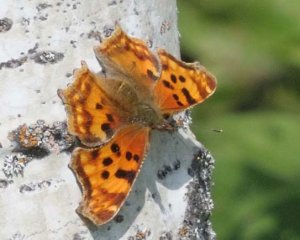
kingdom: Animalia
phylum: Arthropoda
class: Insecta
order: Lepidoptera
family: Nymphalidae
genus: Polygonia
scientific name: Polygonia satyrus
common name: Satyr Comma
